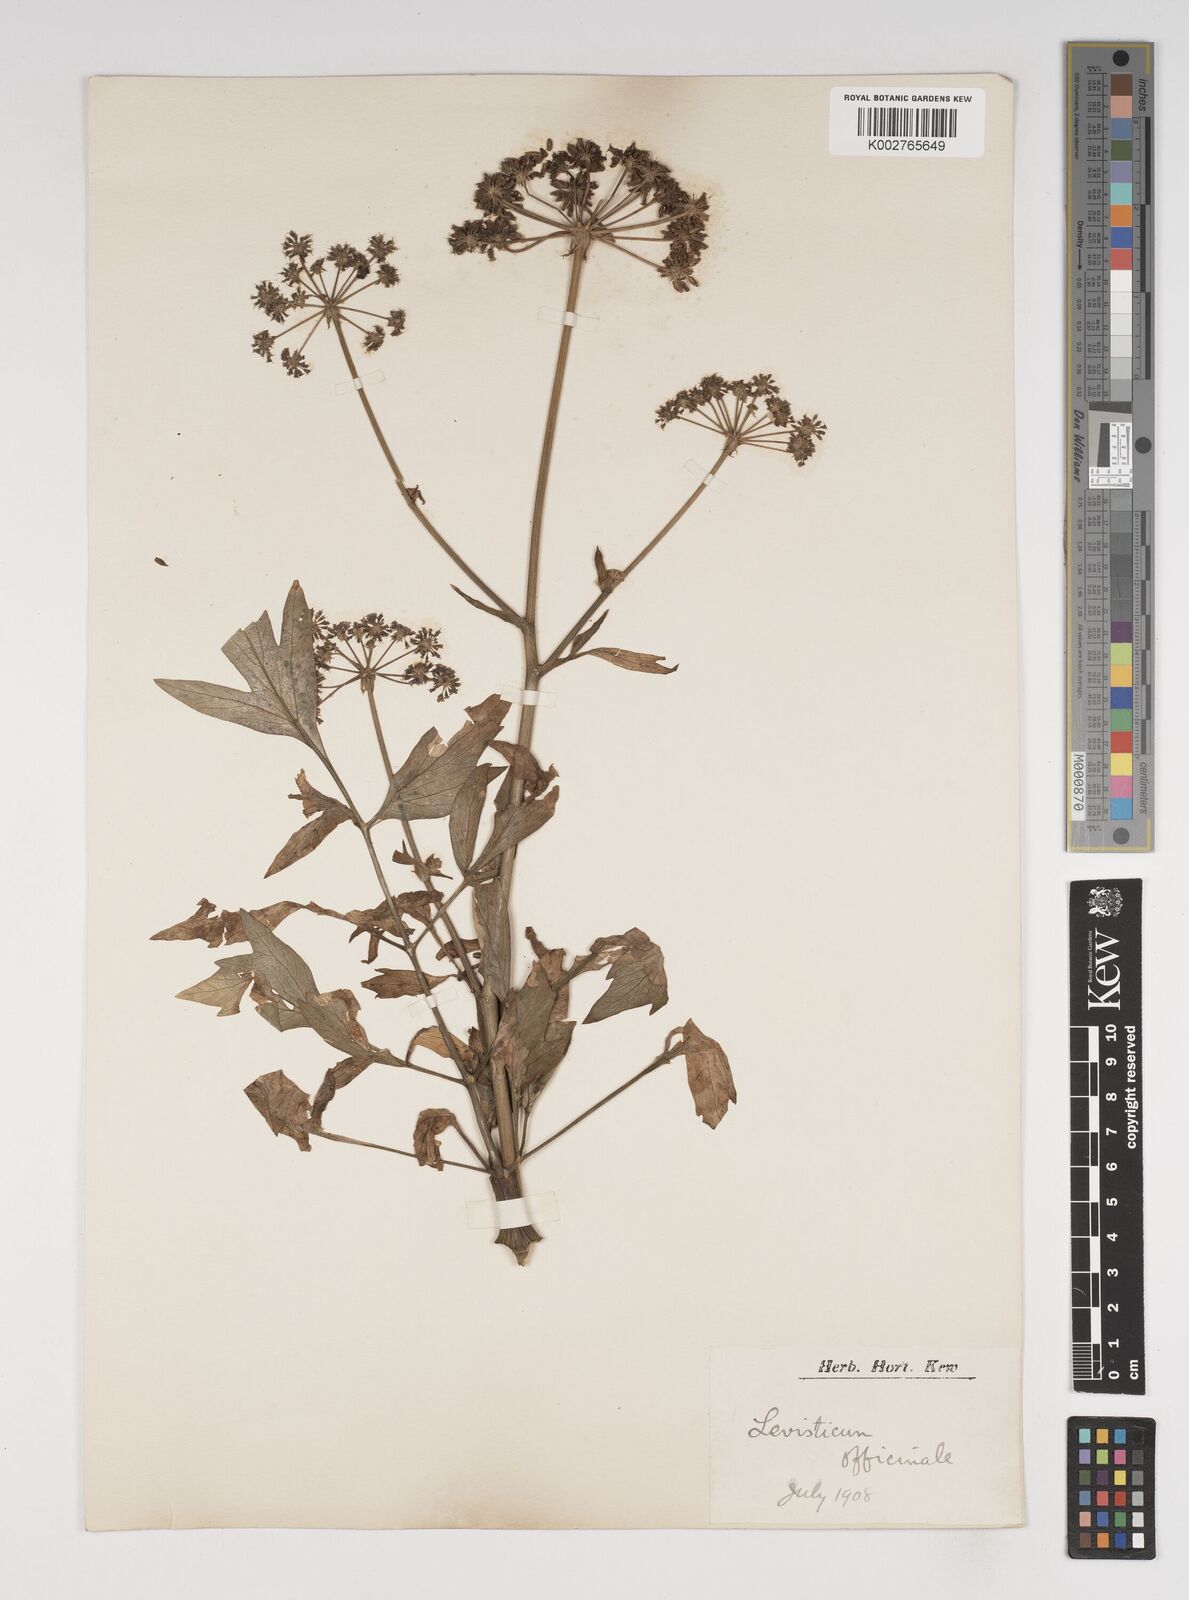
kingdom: Plantae
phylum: Tracheophyta
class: Magnoliopsida
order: Apiales
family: Apiaceae
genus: Levisticum
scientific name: Levisticum officinale
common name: Lovage
